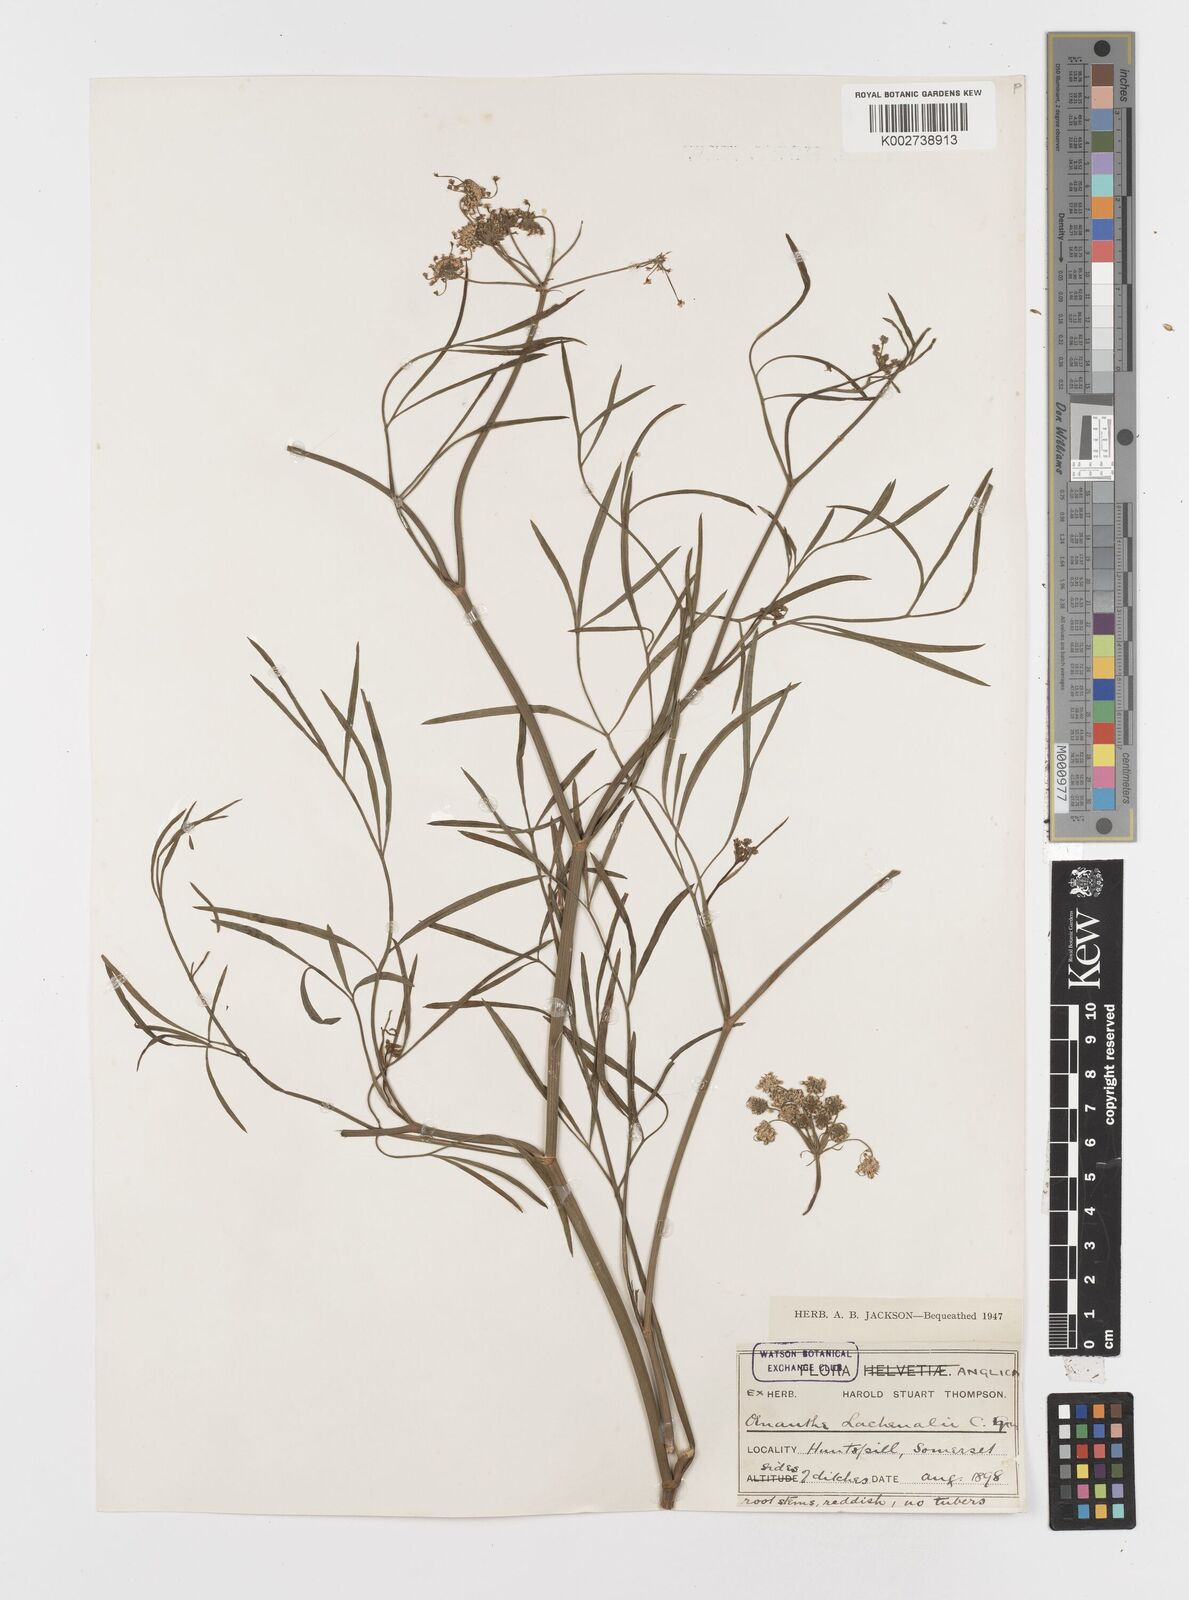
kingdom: Plantae
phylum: Tracheophyta
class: Magnoliopsida
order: Apiales
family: Apiaceae
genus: Oenanthe
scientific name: Oenanthe lachenalii
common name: Parsley water-dropwort
